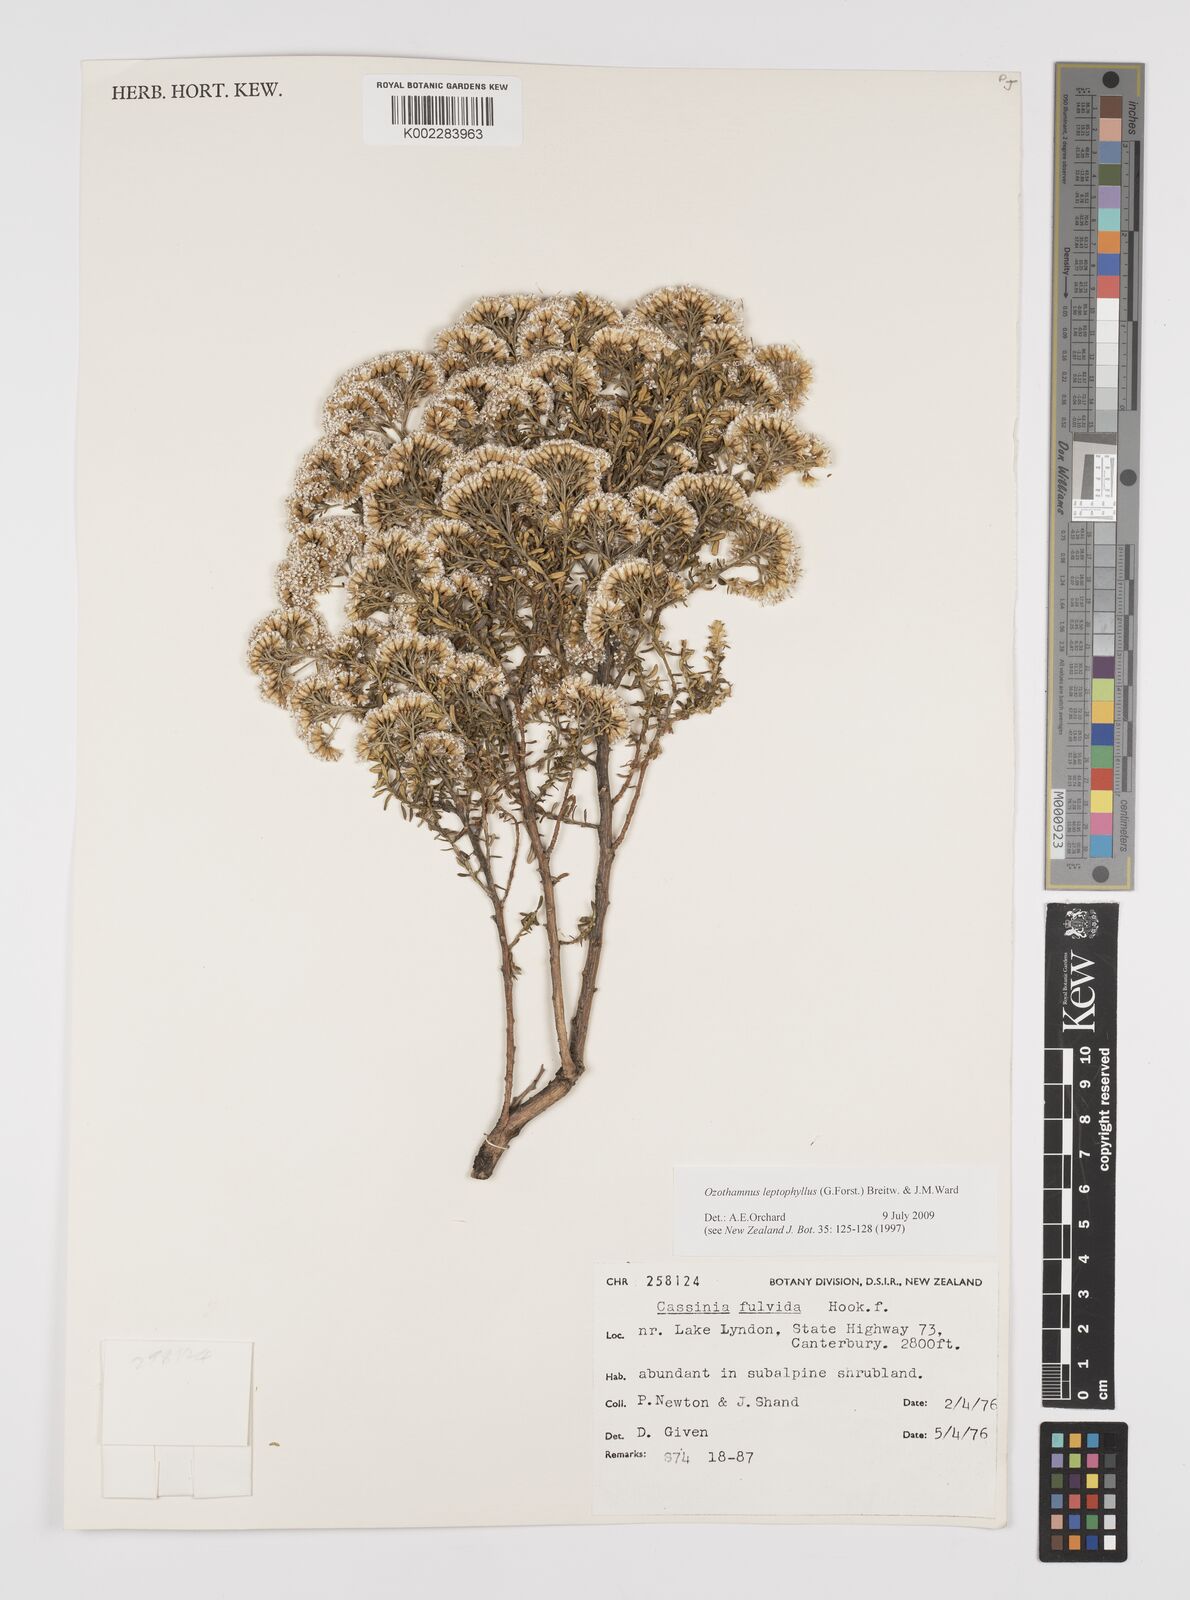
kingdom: Plantae
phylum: Tracheophyta
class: Magnoliopsida
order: Asterales
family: Asteraceae
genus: Ozothamnus
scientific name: Ozothamnus leptophyllus
